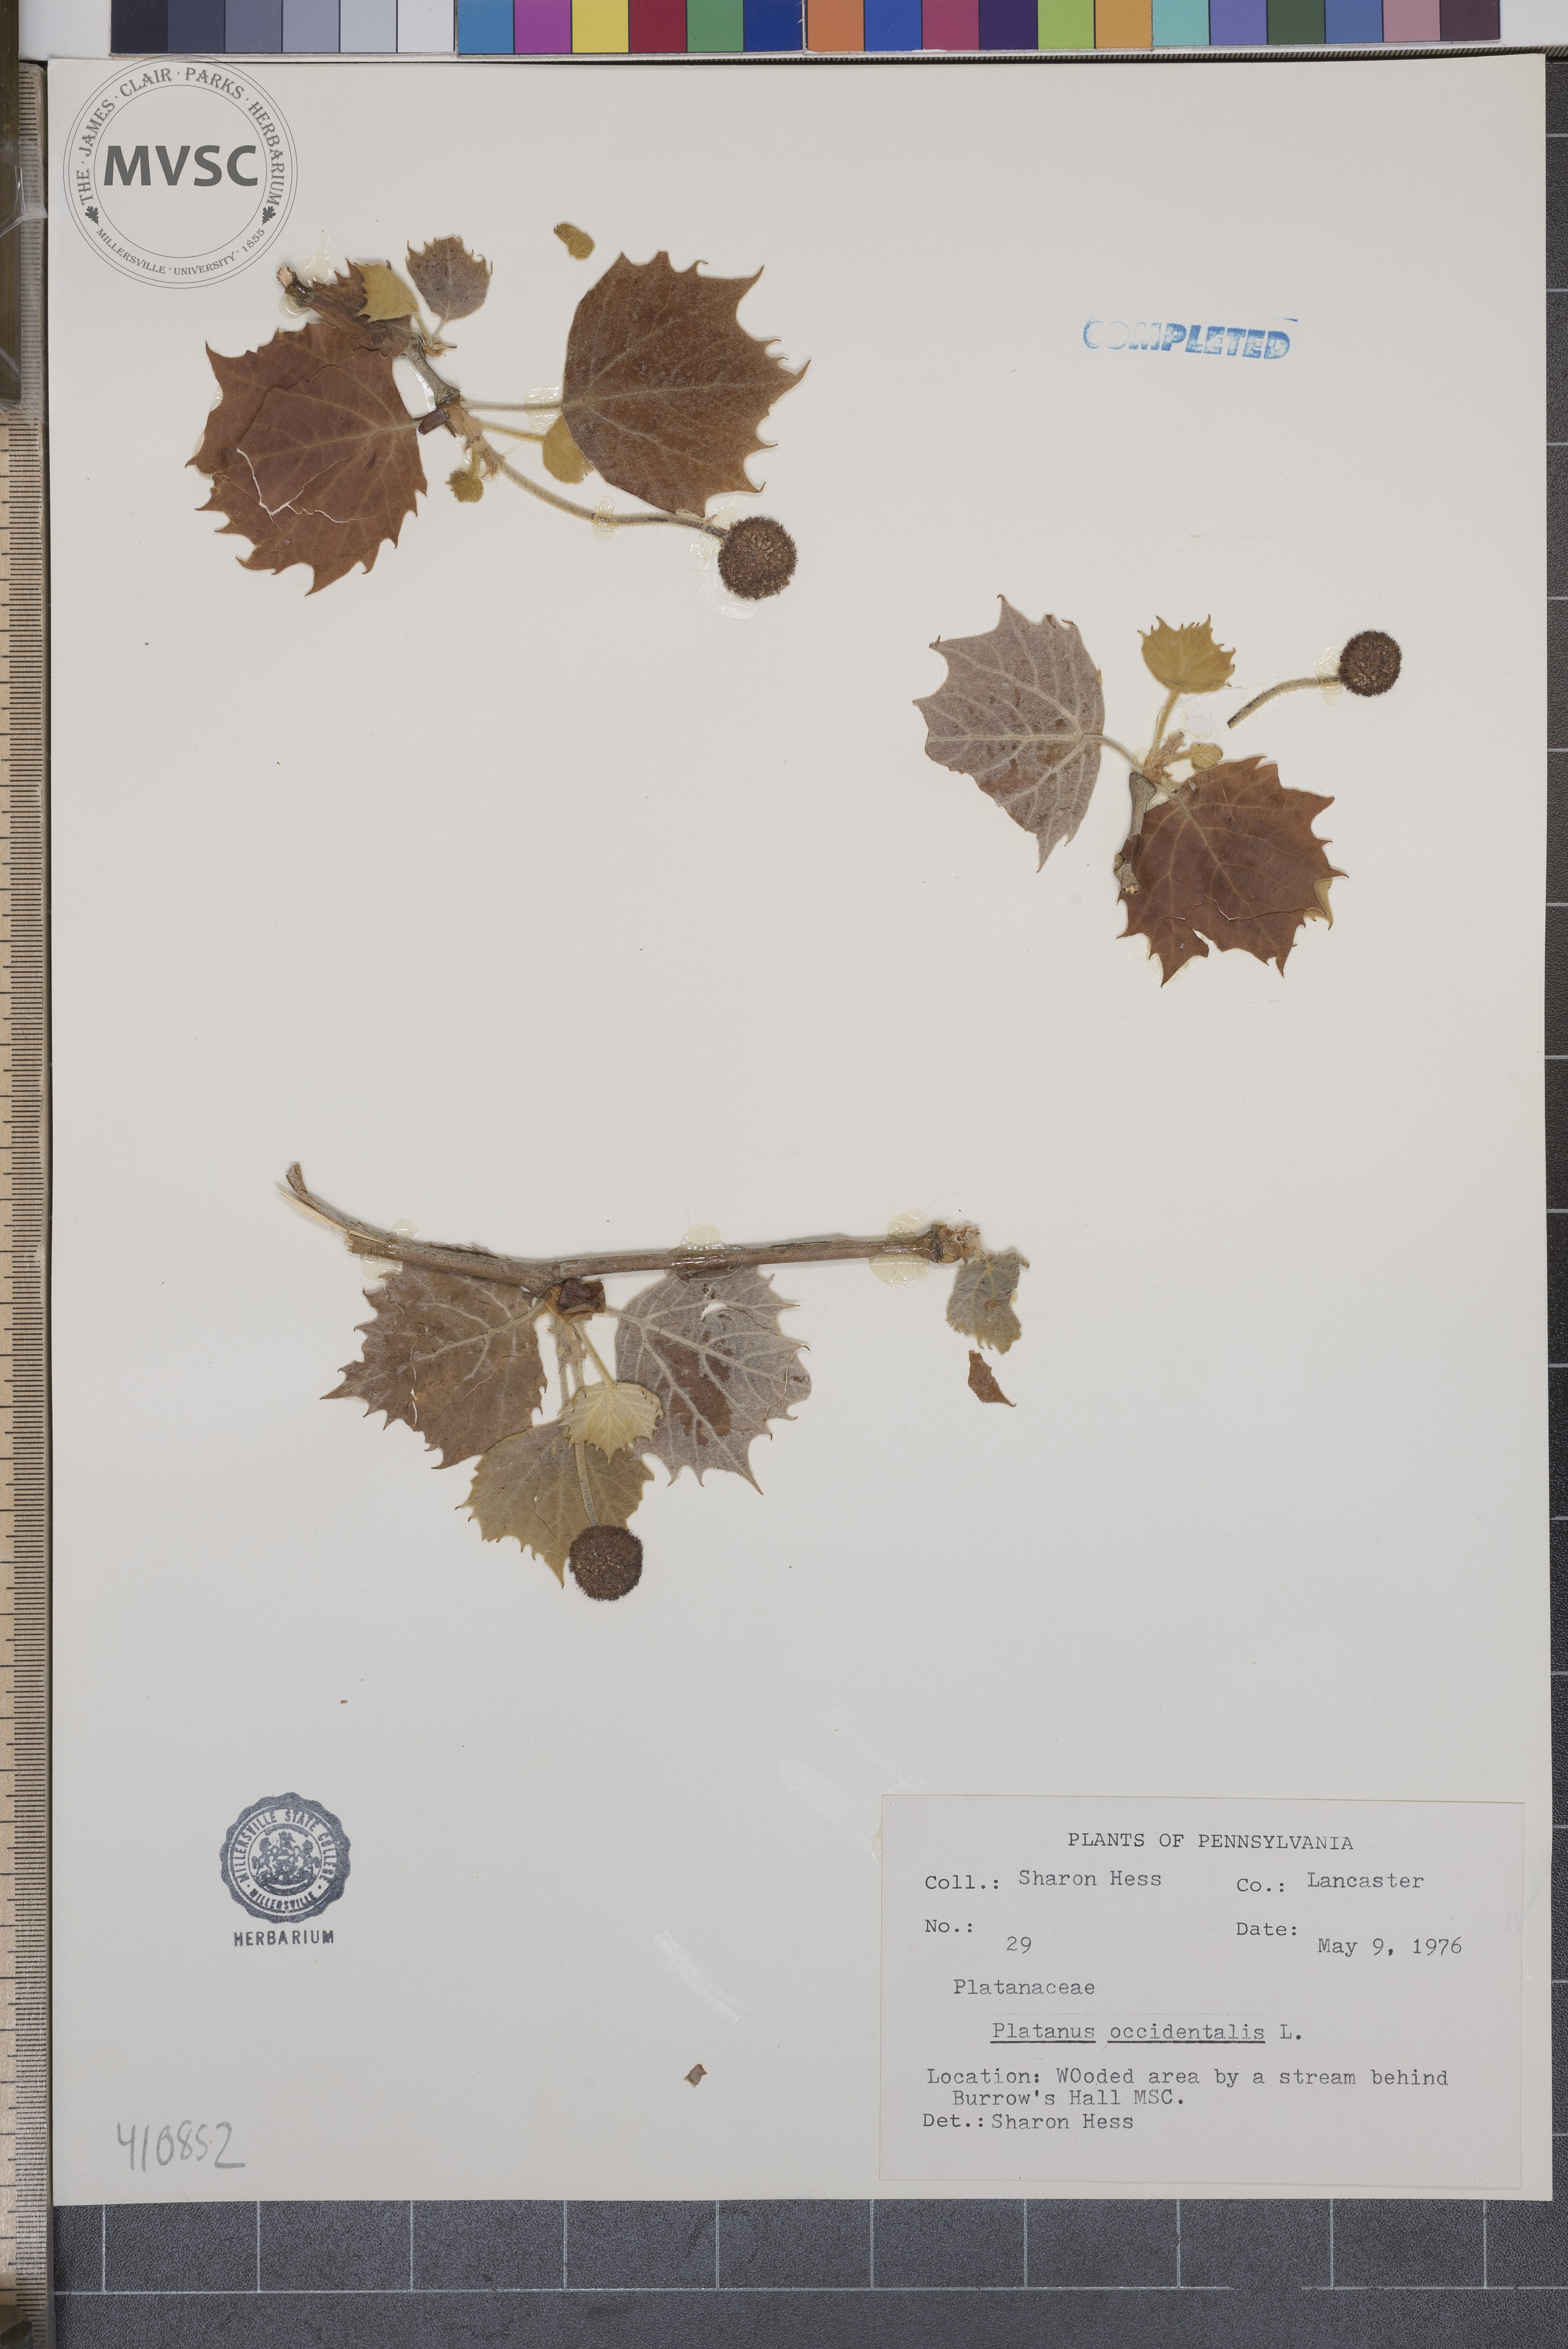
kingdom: Plantae
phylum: Tracheophyta
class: Magnoliopsida
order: Proteales
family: Platanaceae
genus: Platanus
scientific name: Platanus occidentalis
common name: American sycamore
